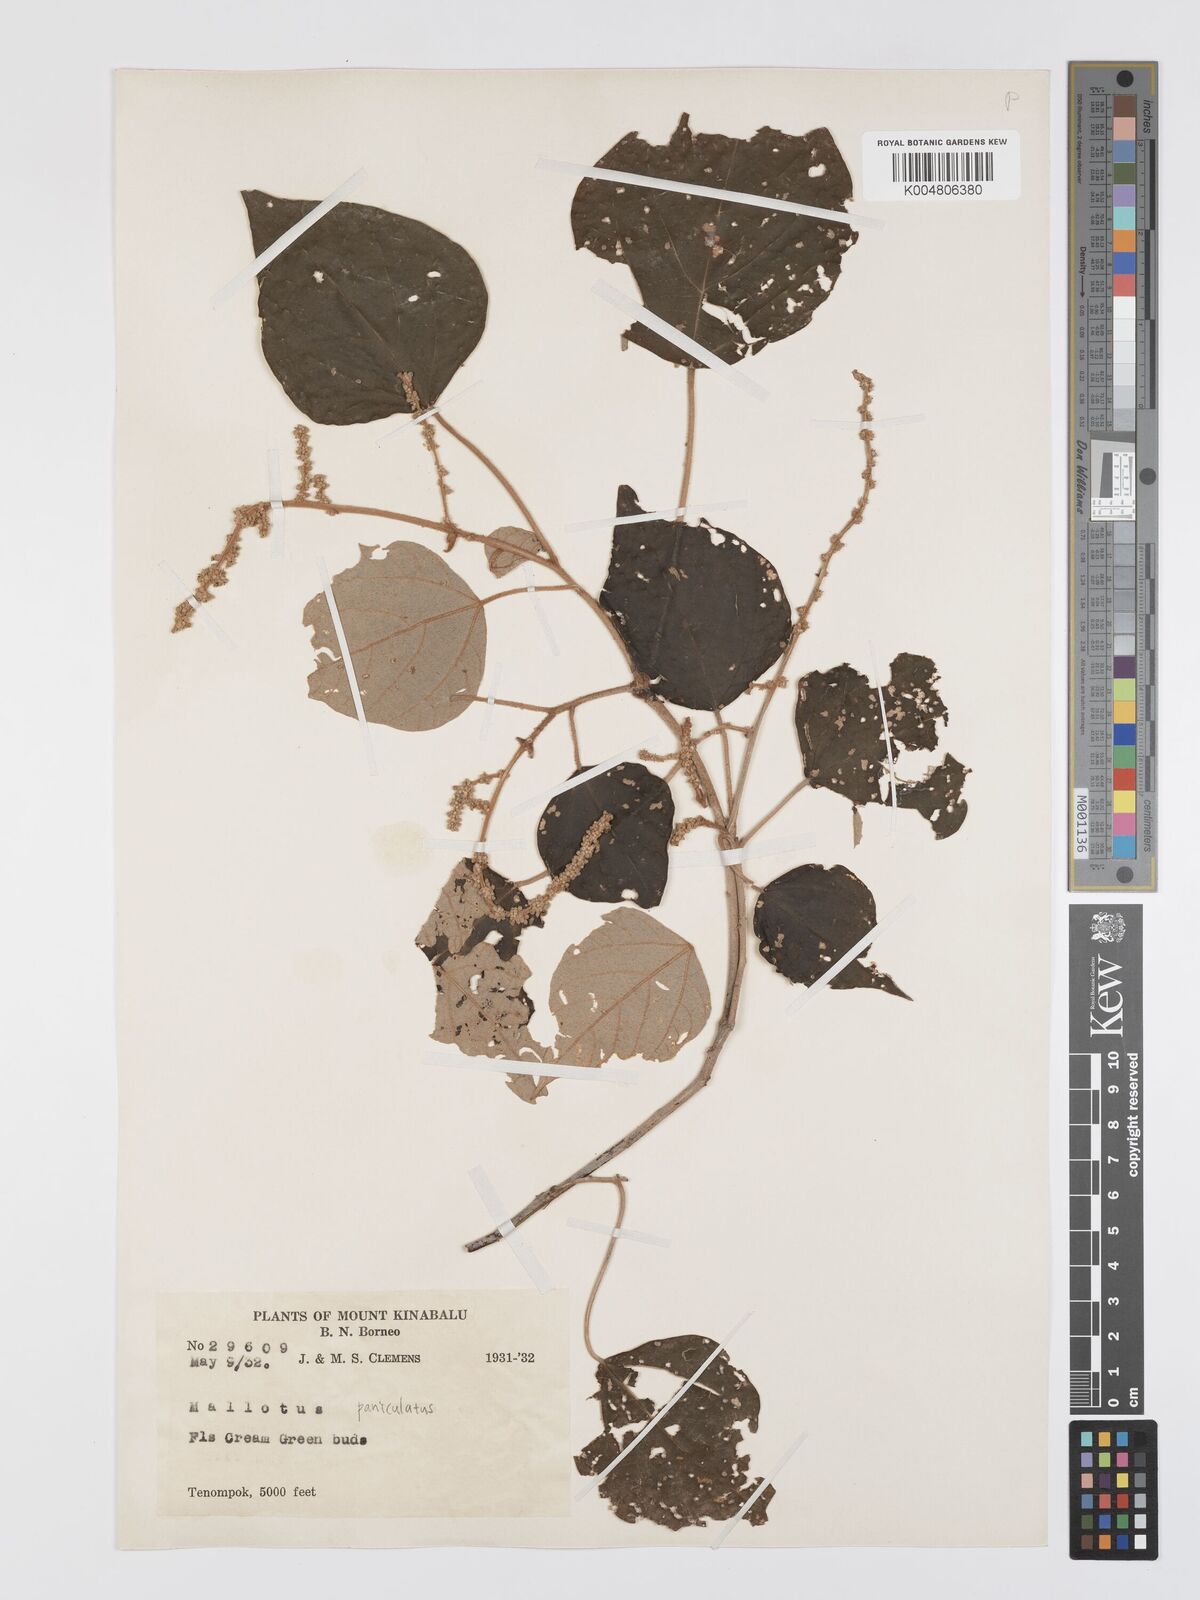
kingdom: Plantae
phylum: Tracheophyta
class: Magnoliopsida
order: Malpighiales
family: Euphorbiaceae
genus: Mallotus
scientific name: Mallotus paniculatus
